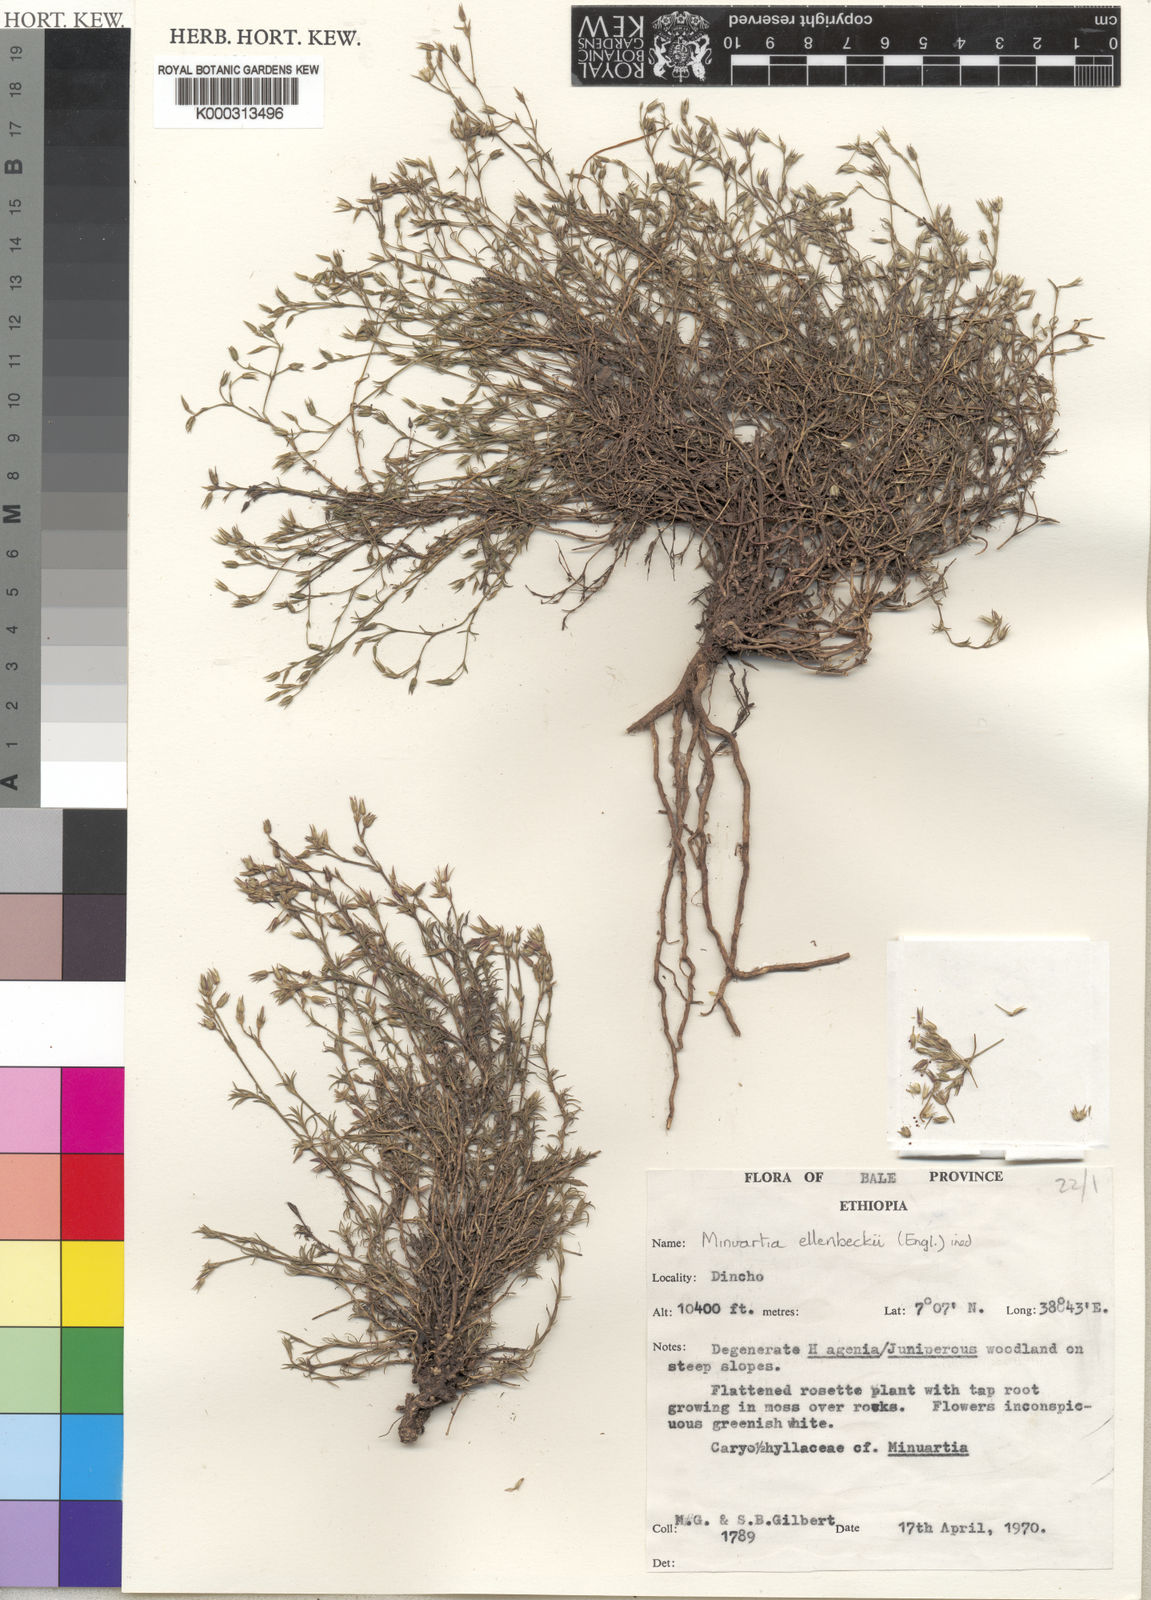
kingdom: Plantae
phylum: Tracheophyta
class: Magnoliopsida
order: Caryophyllales
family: Caryophyllaceae
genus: Minuartia
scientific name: Minuartia ellenbeckii
